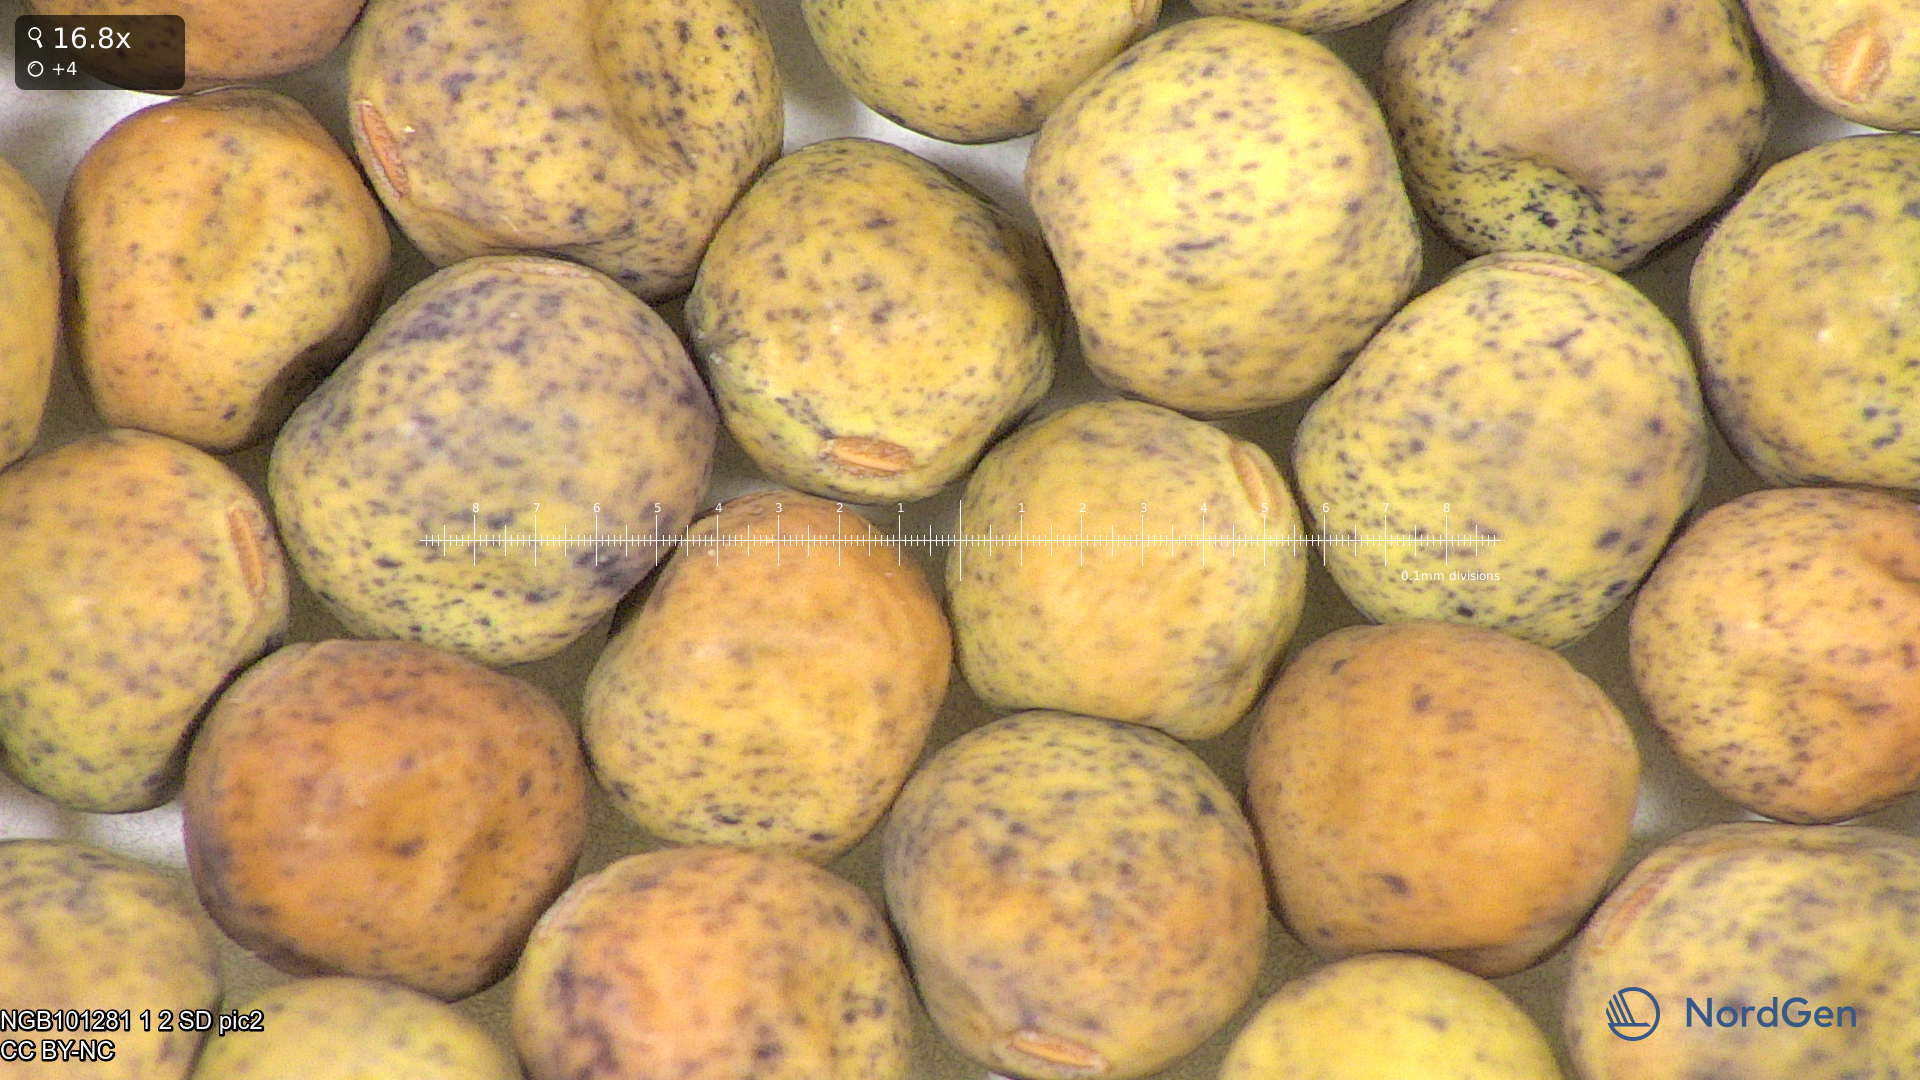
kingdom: Plantae
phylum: Tracheophyta
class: Magnoliopsida
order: Fabales
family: Fabaceae
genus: Lathyrus
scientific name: Lathyrus oleraceus
